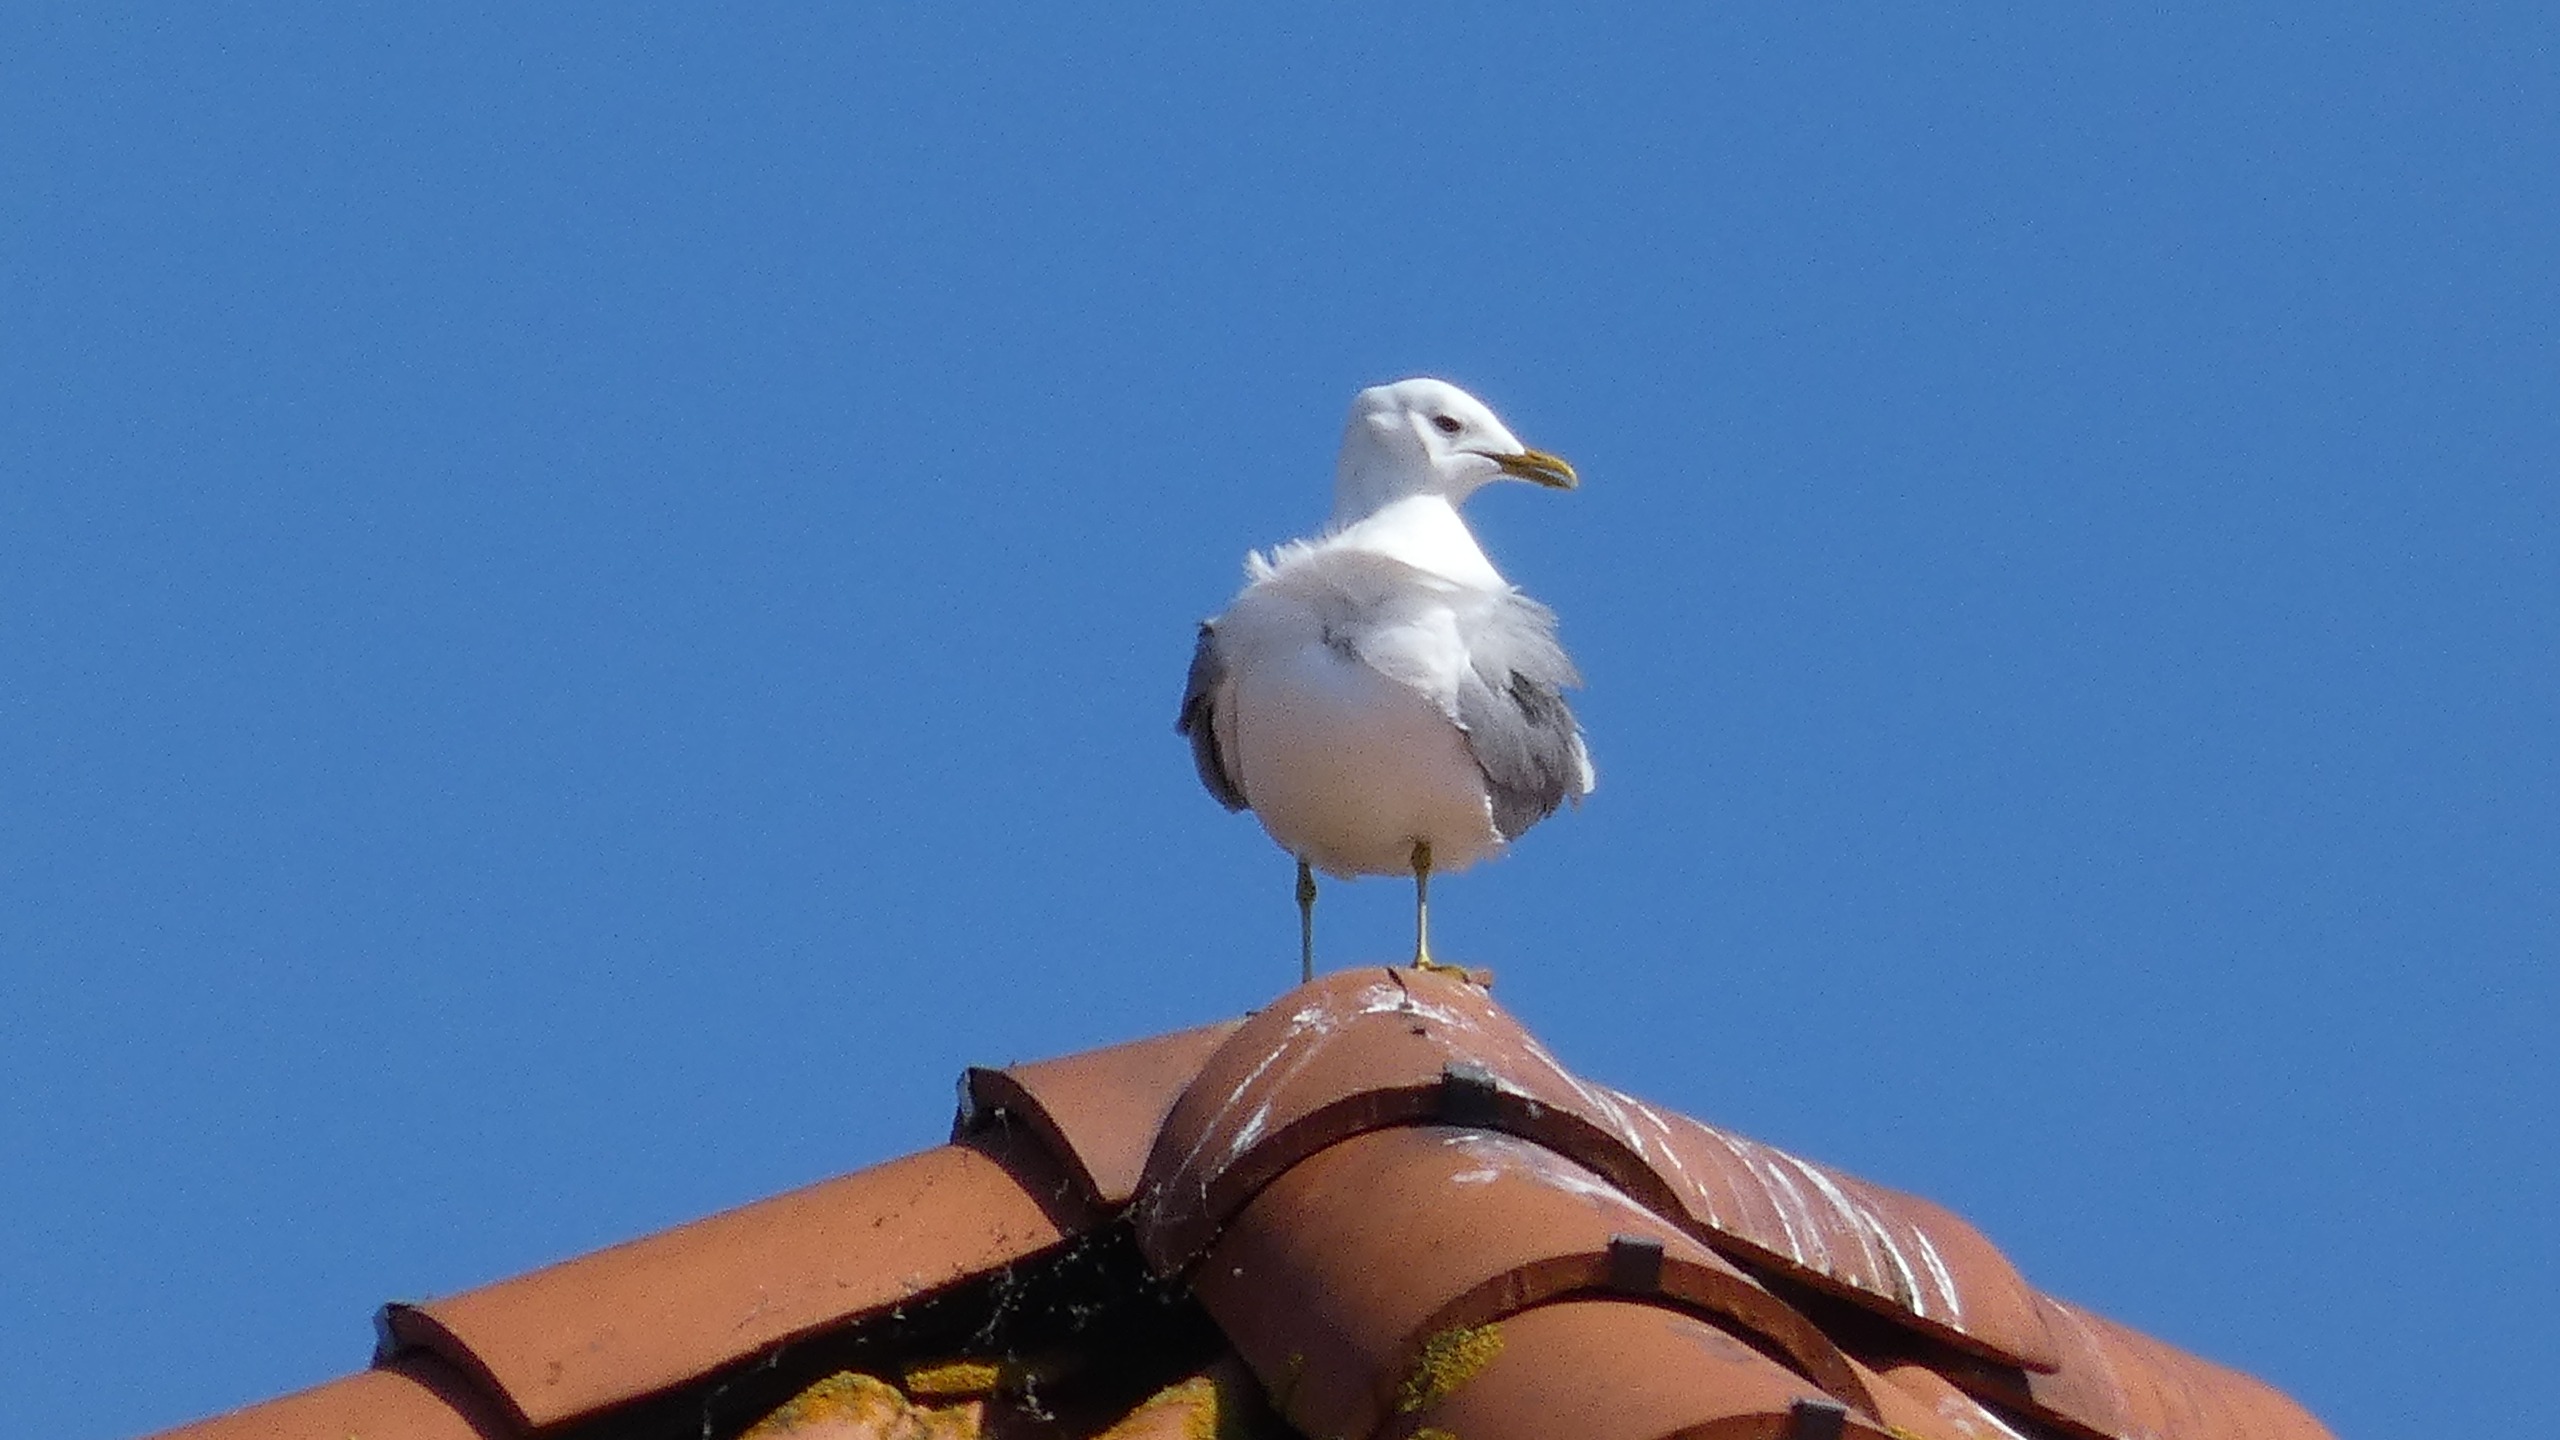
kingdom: Animalia
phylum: Chordata
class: Aves
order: Charadriiformes
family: Laridae
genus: Larus
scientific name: Larus canus
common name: Stormmåge
